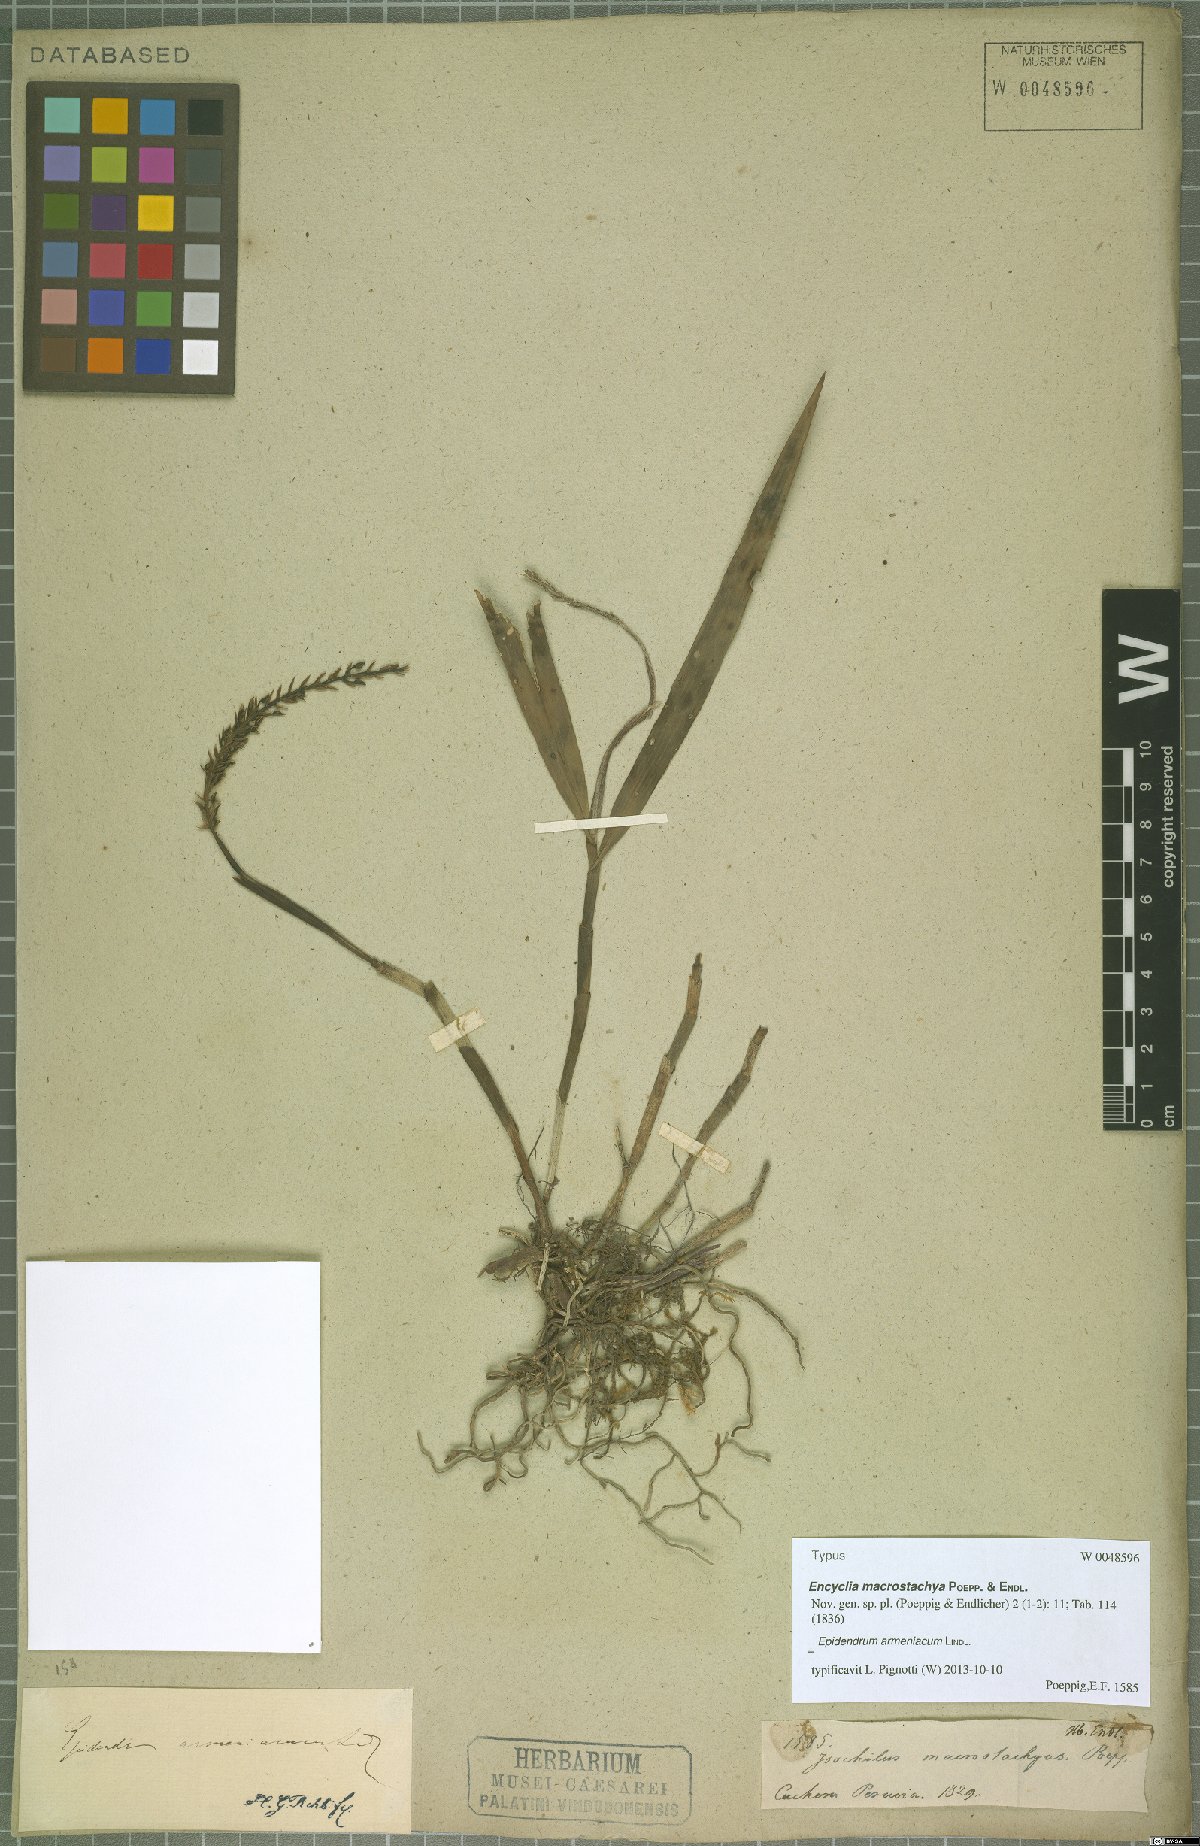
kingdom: Plantae
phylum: Tracheophyta
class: Liliopsida
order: Asparagales
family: Orchidaceae
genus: Epidendrum
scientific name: Epidendrum armeniacum
